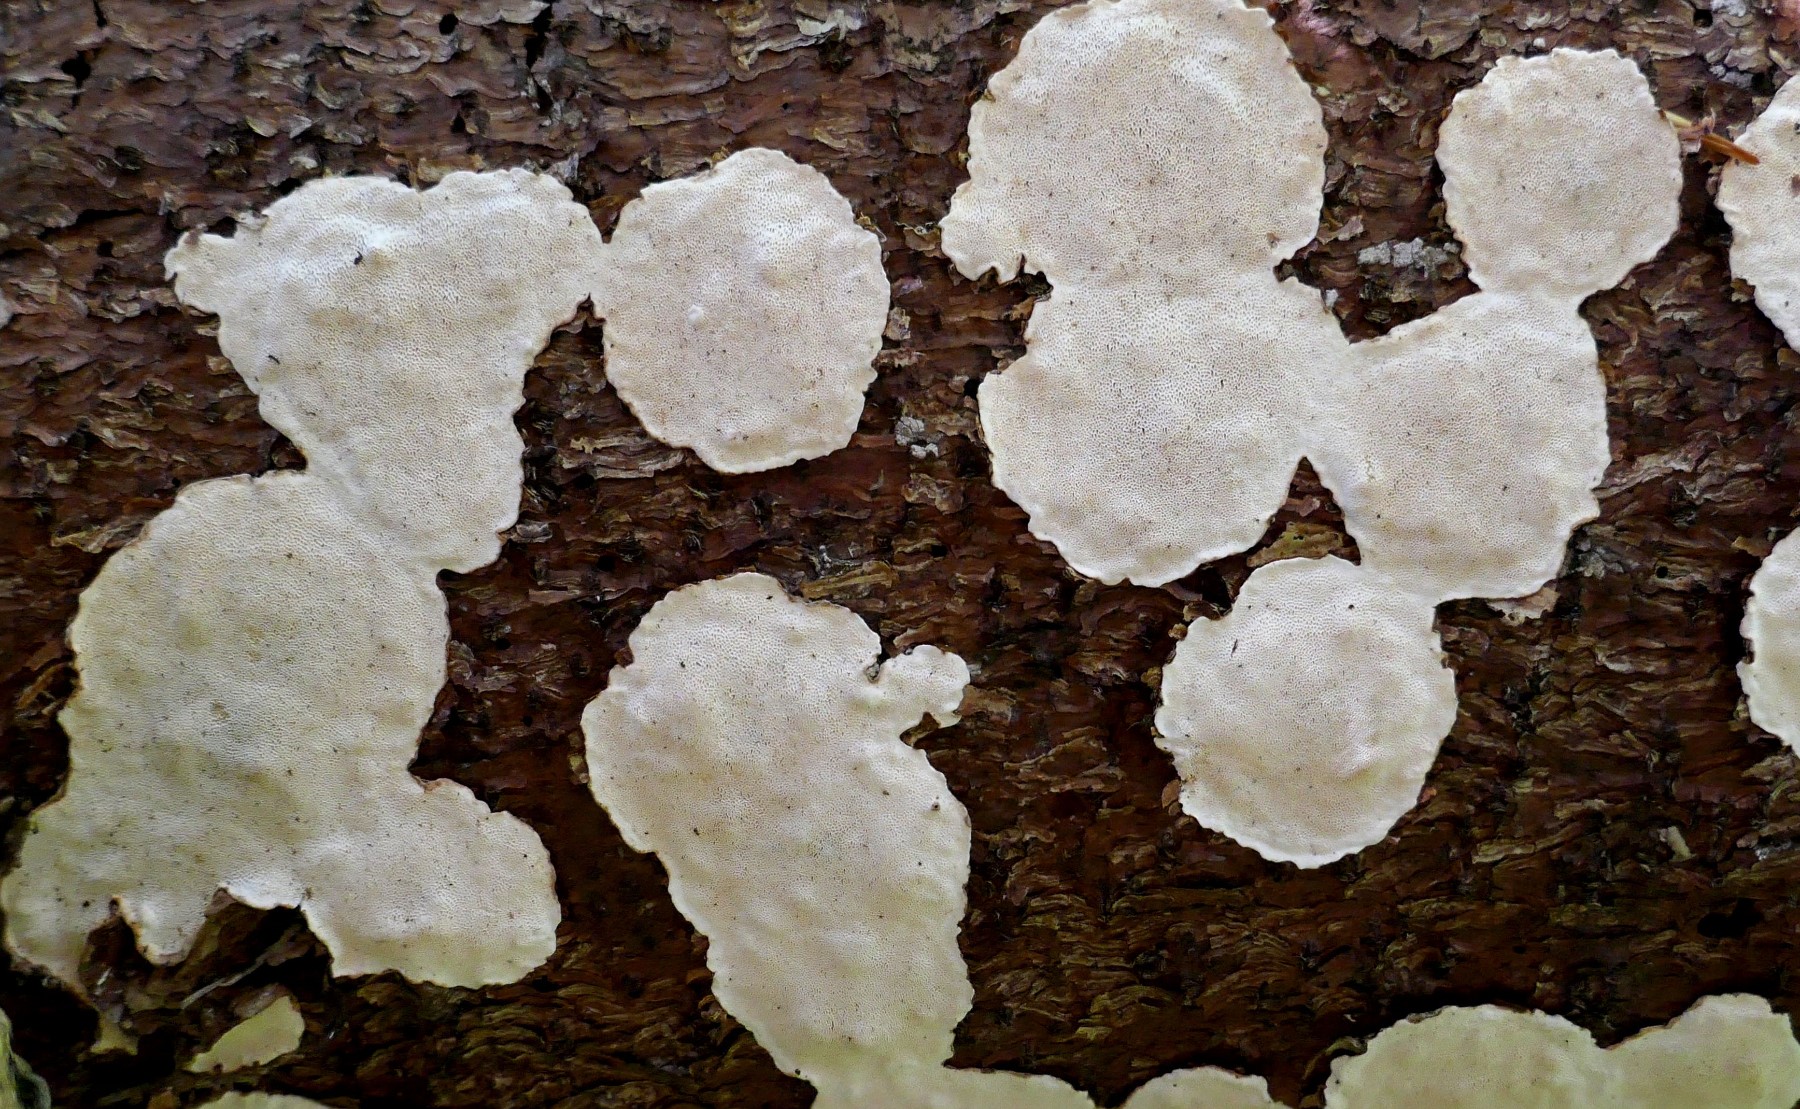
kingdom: Fungi
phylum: Basidiomycota
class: Agaricomycetes
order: Russulales
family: Bondarzewiaceae
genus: Heterobasidion
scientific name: Heterobasidion annosum
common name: almindelig rodfordærver
